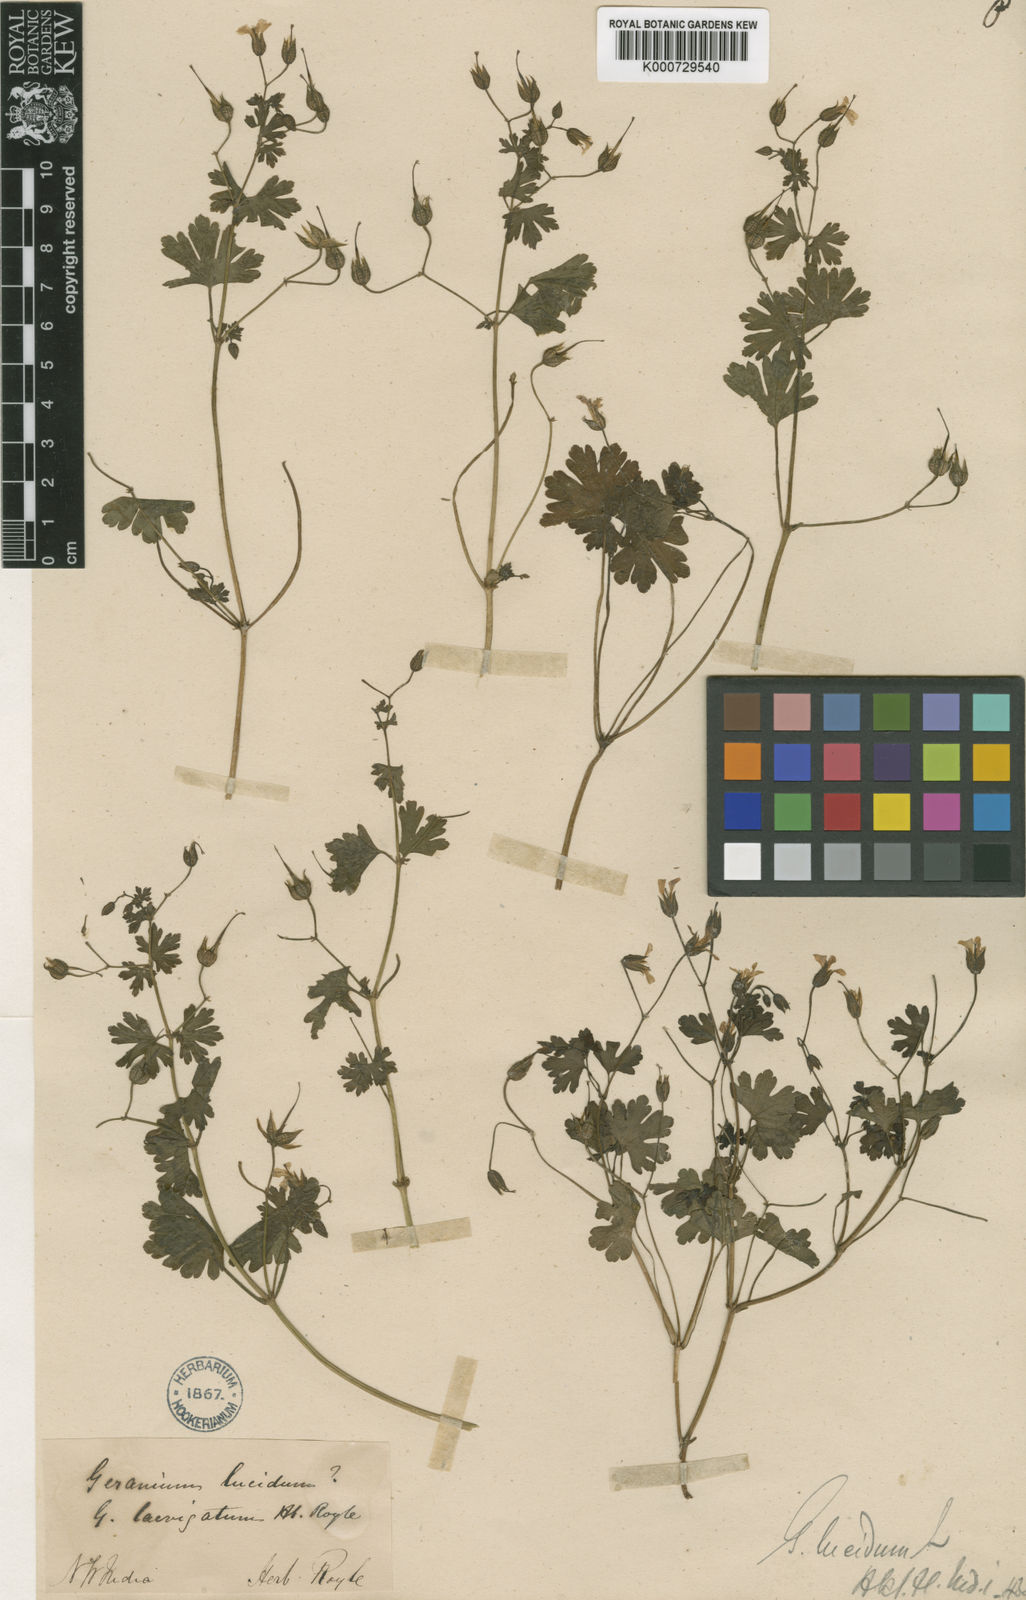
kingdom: Plantae
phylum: Tracheophyta
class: Magnoliopsida
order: Geraniales
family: Geraniaceae
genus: Geranium
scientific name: Geranium lucidum
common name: Shining crane's-bill
